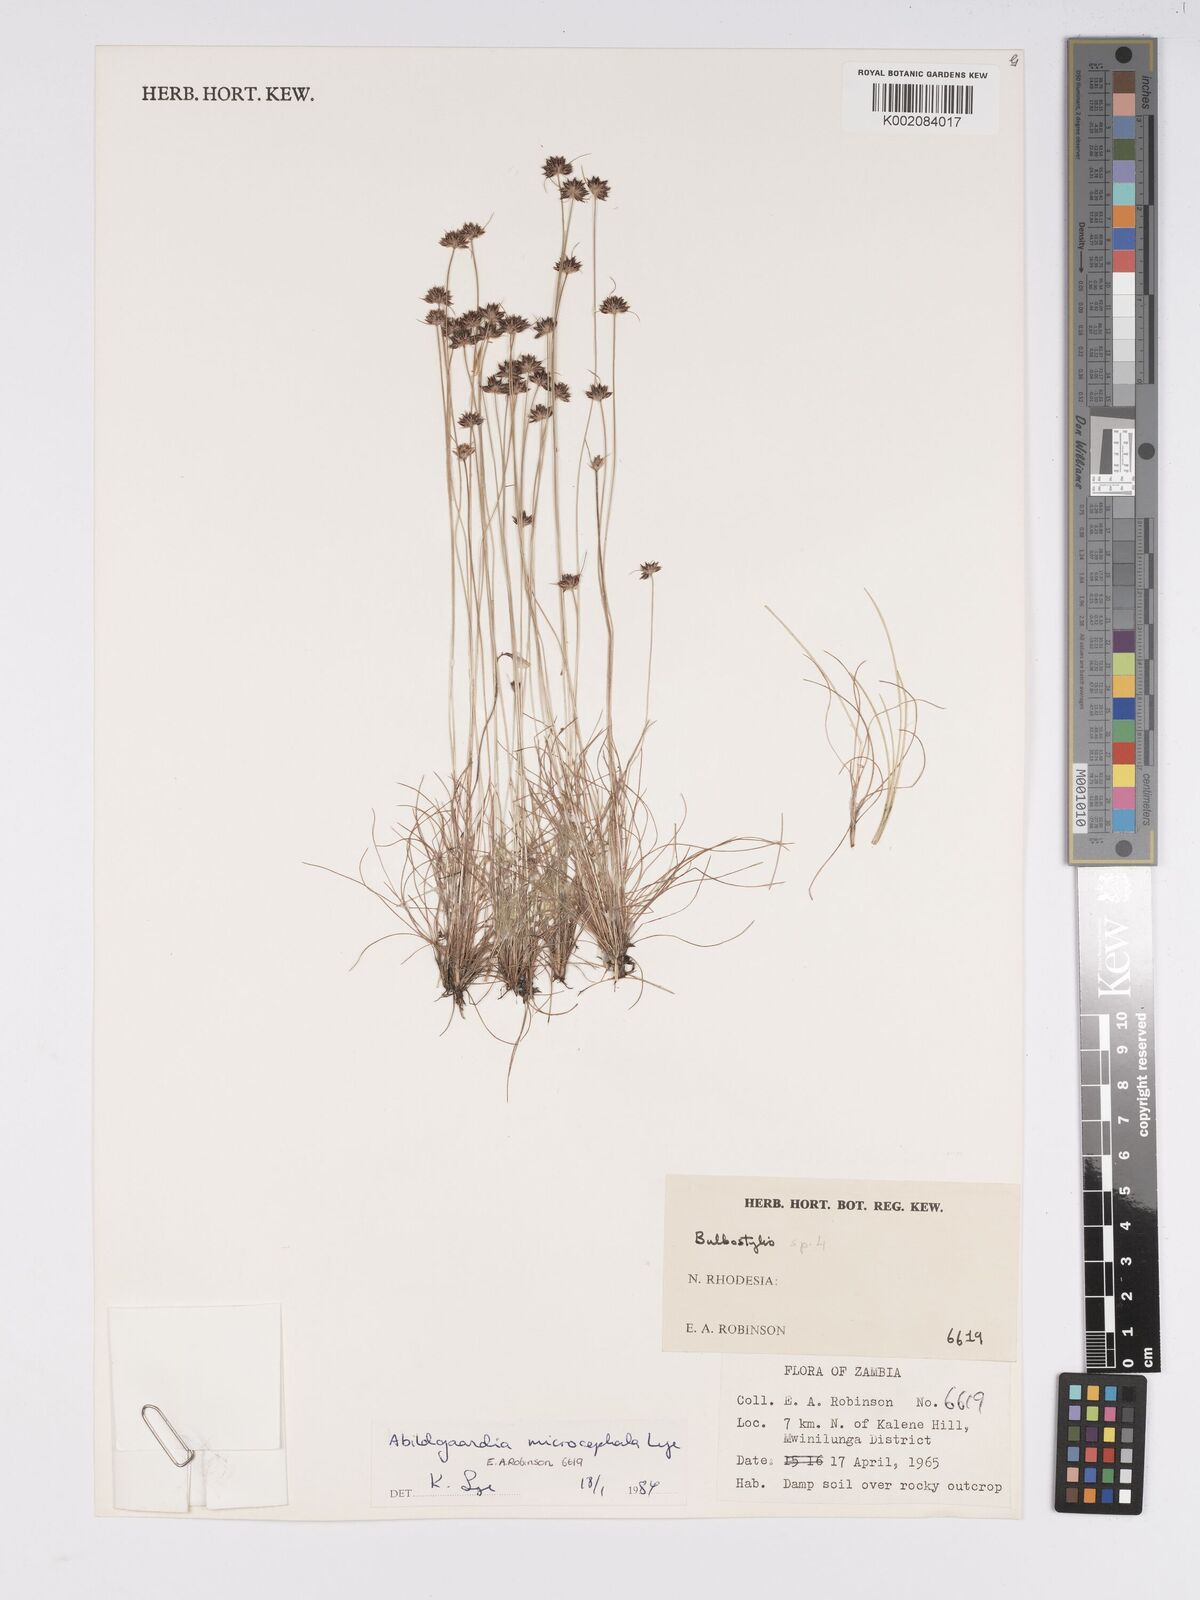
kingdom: Plantae
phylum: Tracheophyta
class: Liliopsida
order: Poales
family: Cyperaceae
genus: Bulbostylis
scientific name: Bulbostylis afromicrocephala
